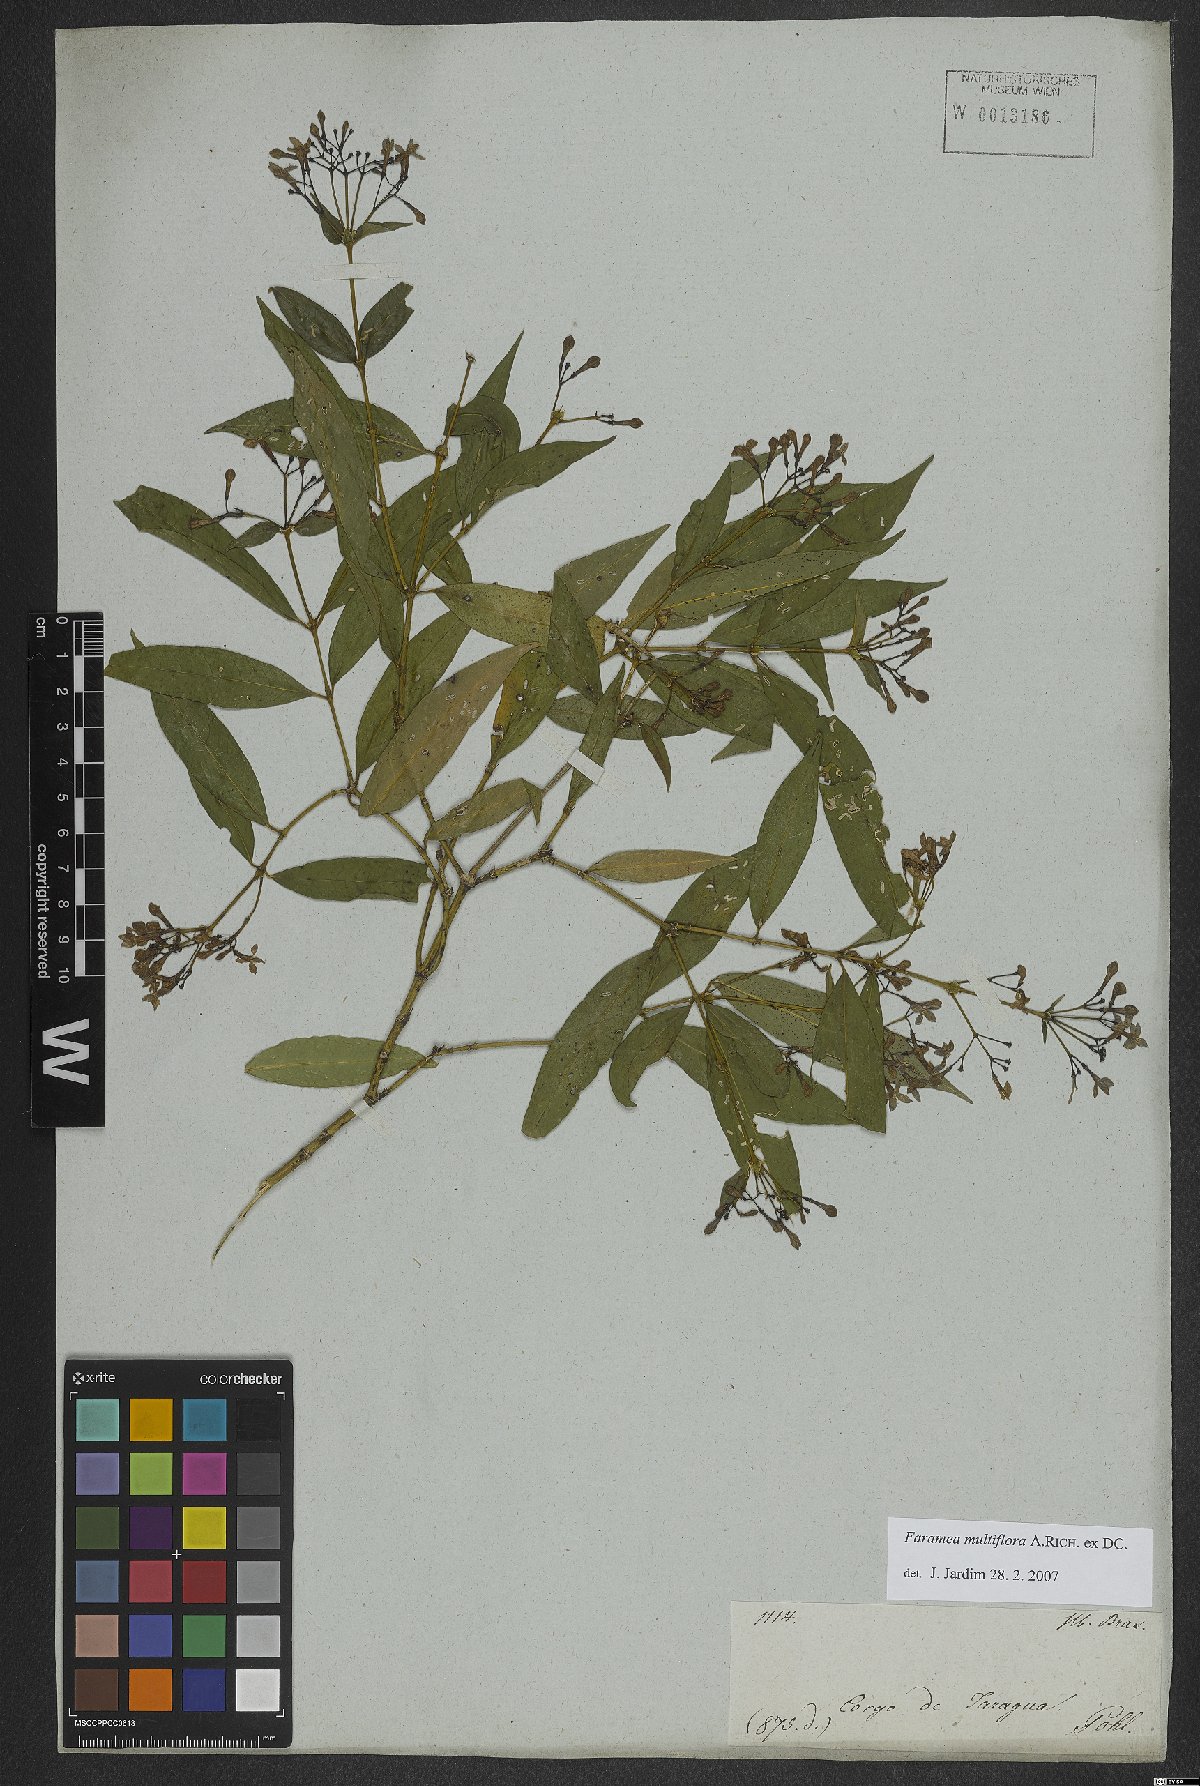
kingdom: Plantae
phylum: Tracheophyta
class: Magnoliopsida
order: Gentianales
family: Rubiaceae
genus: Faramea
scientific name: Faramea multiflora
